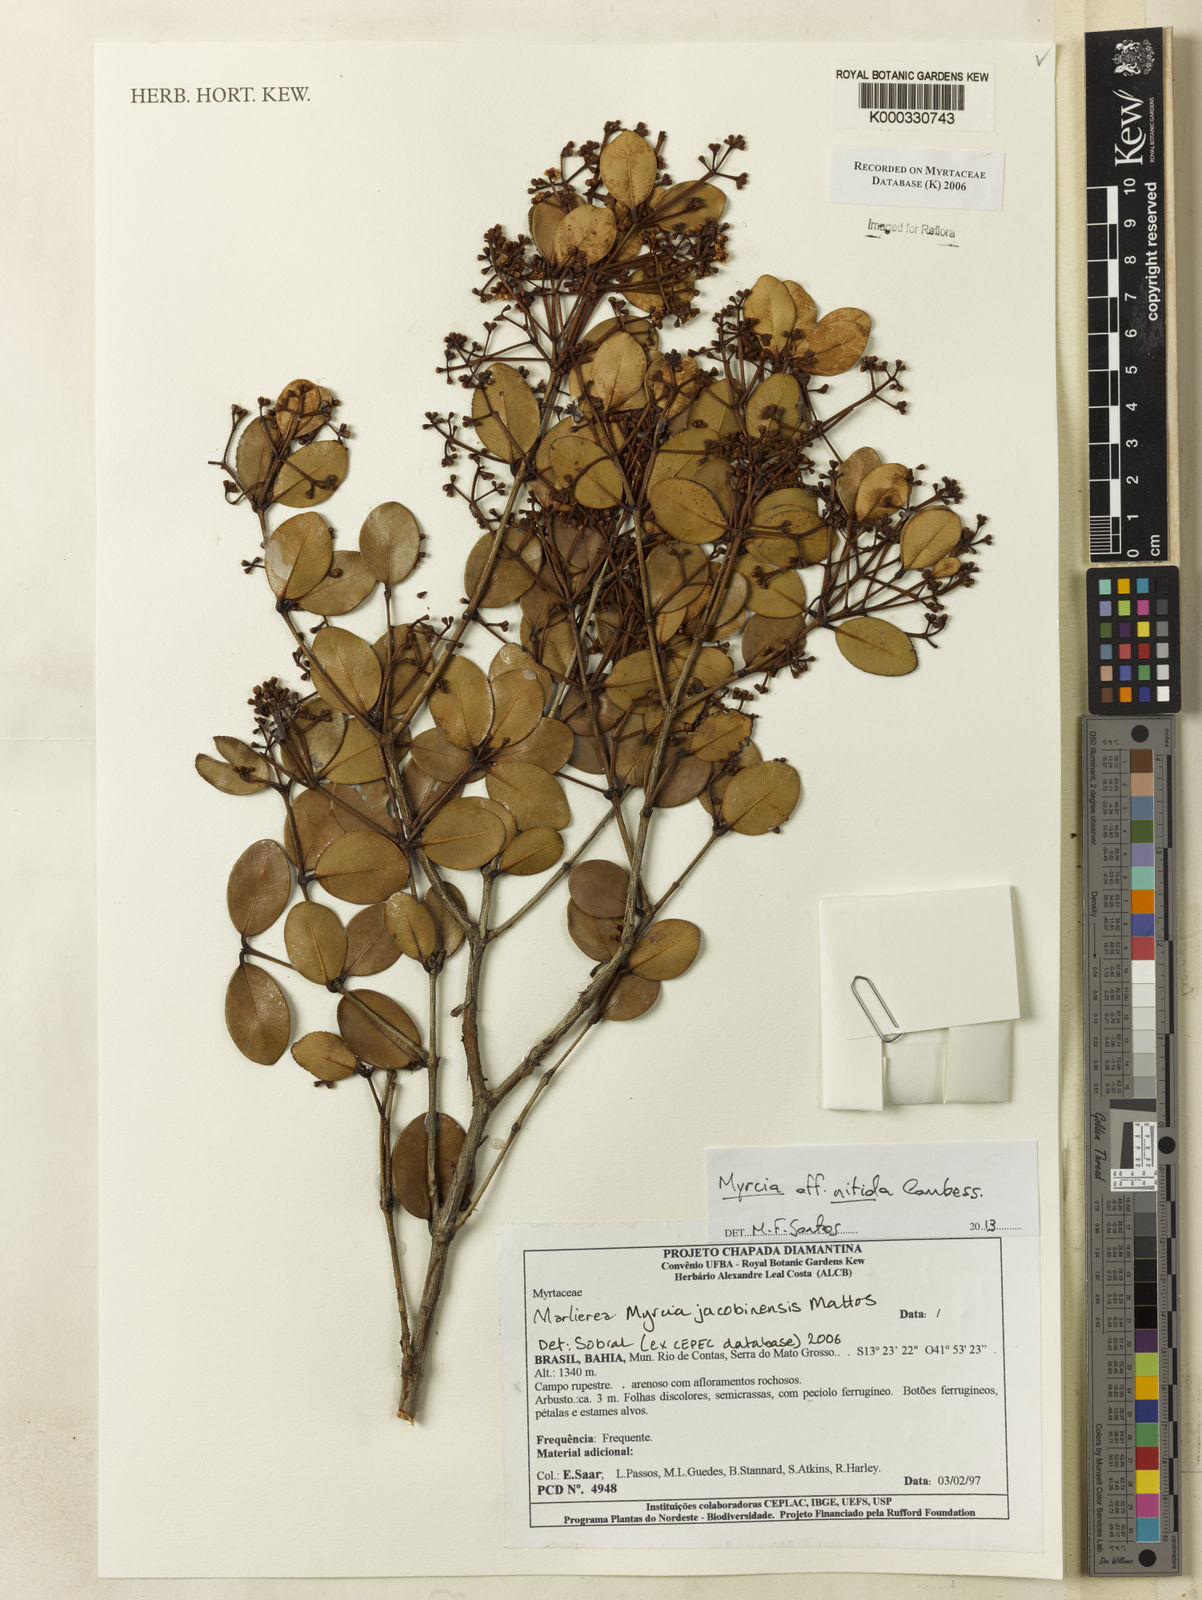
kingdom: Plantae
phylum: Tracheophyta
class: Magnoliopsida
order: Myrtales
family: Myrtaceae
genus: Marlierea
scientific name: Marlierea
